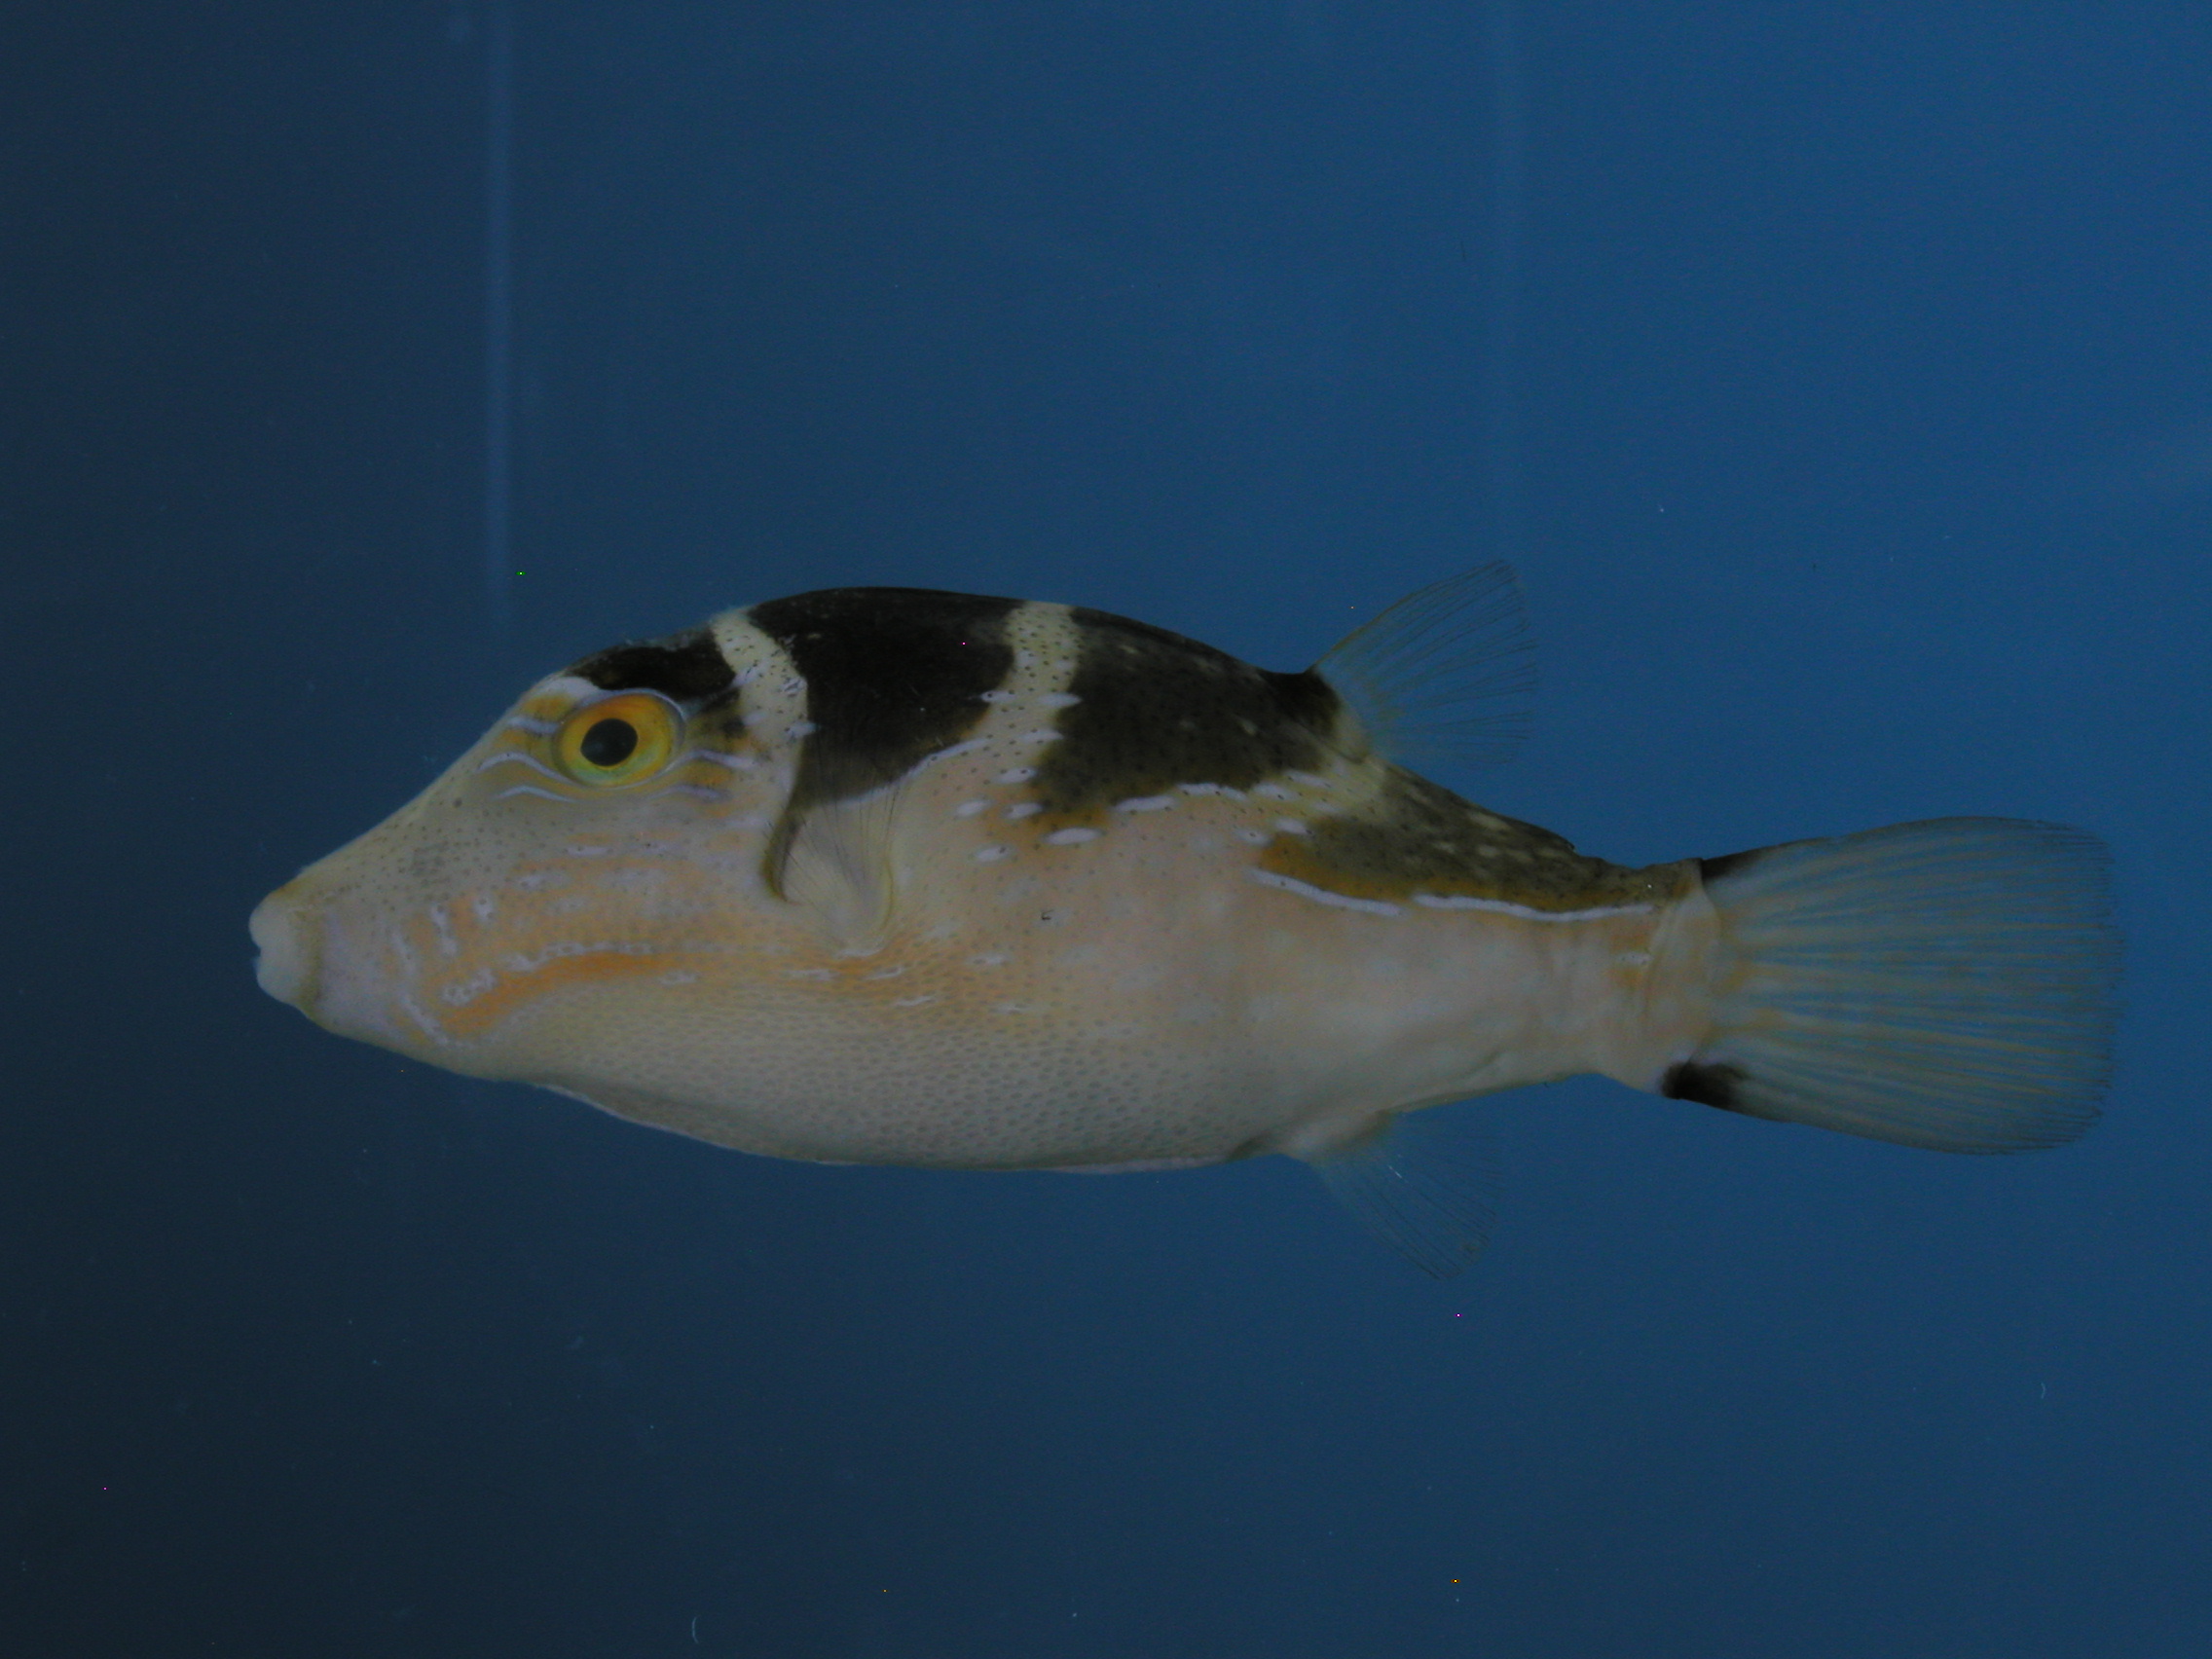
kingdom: Animalia
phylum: Chordata
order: Tetraodontiformes
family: Tetraodontidae
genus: Canthigaster
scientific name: Canthigaster coronata
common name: Crown toby
